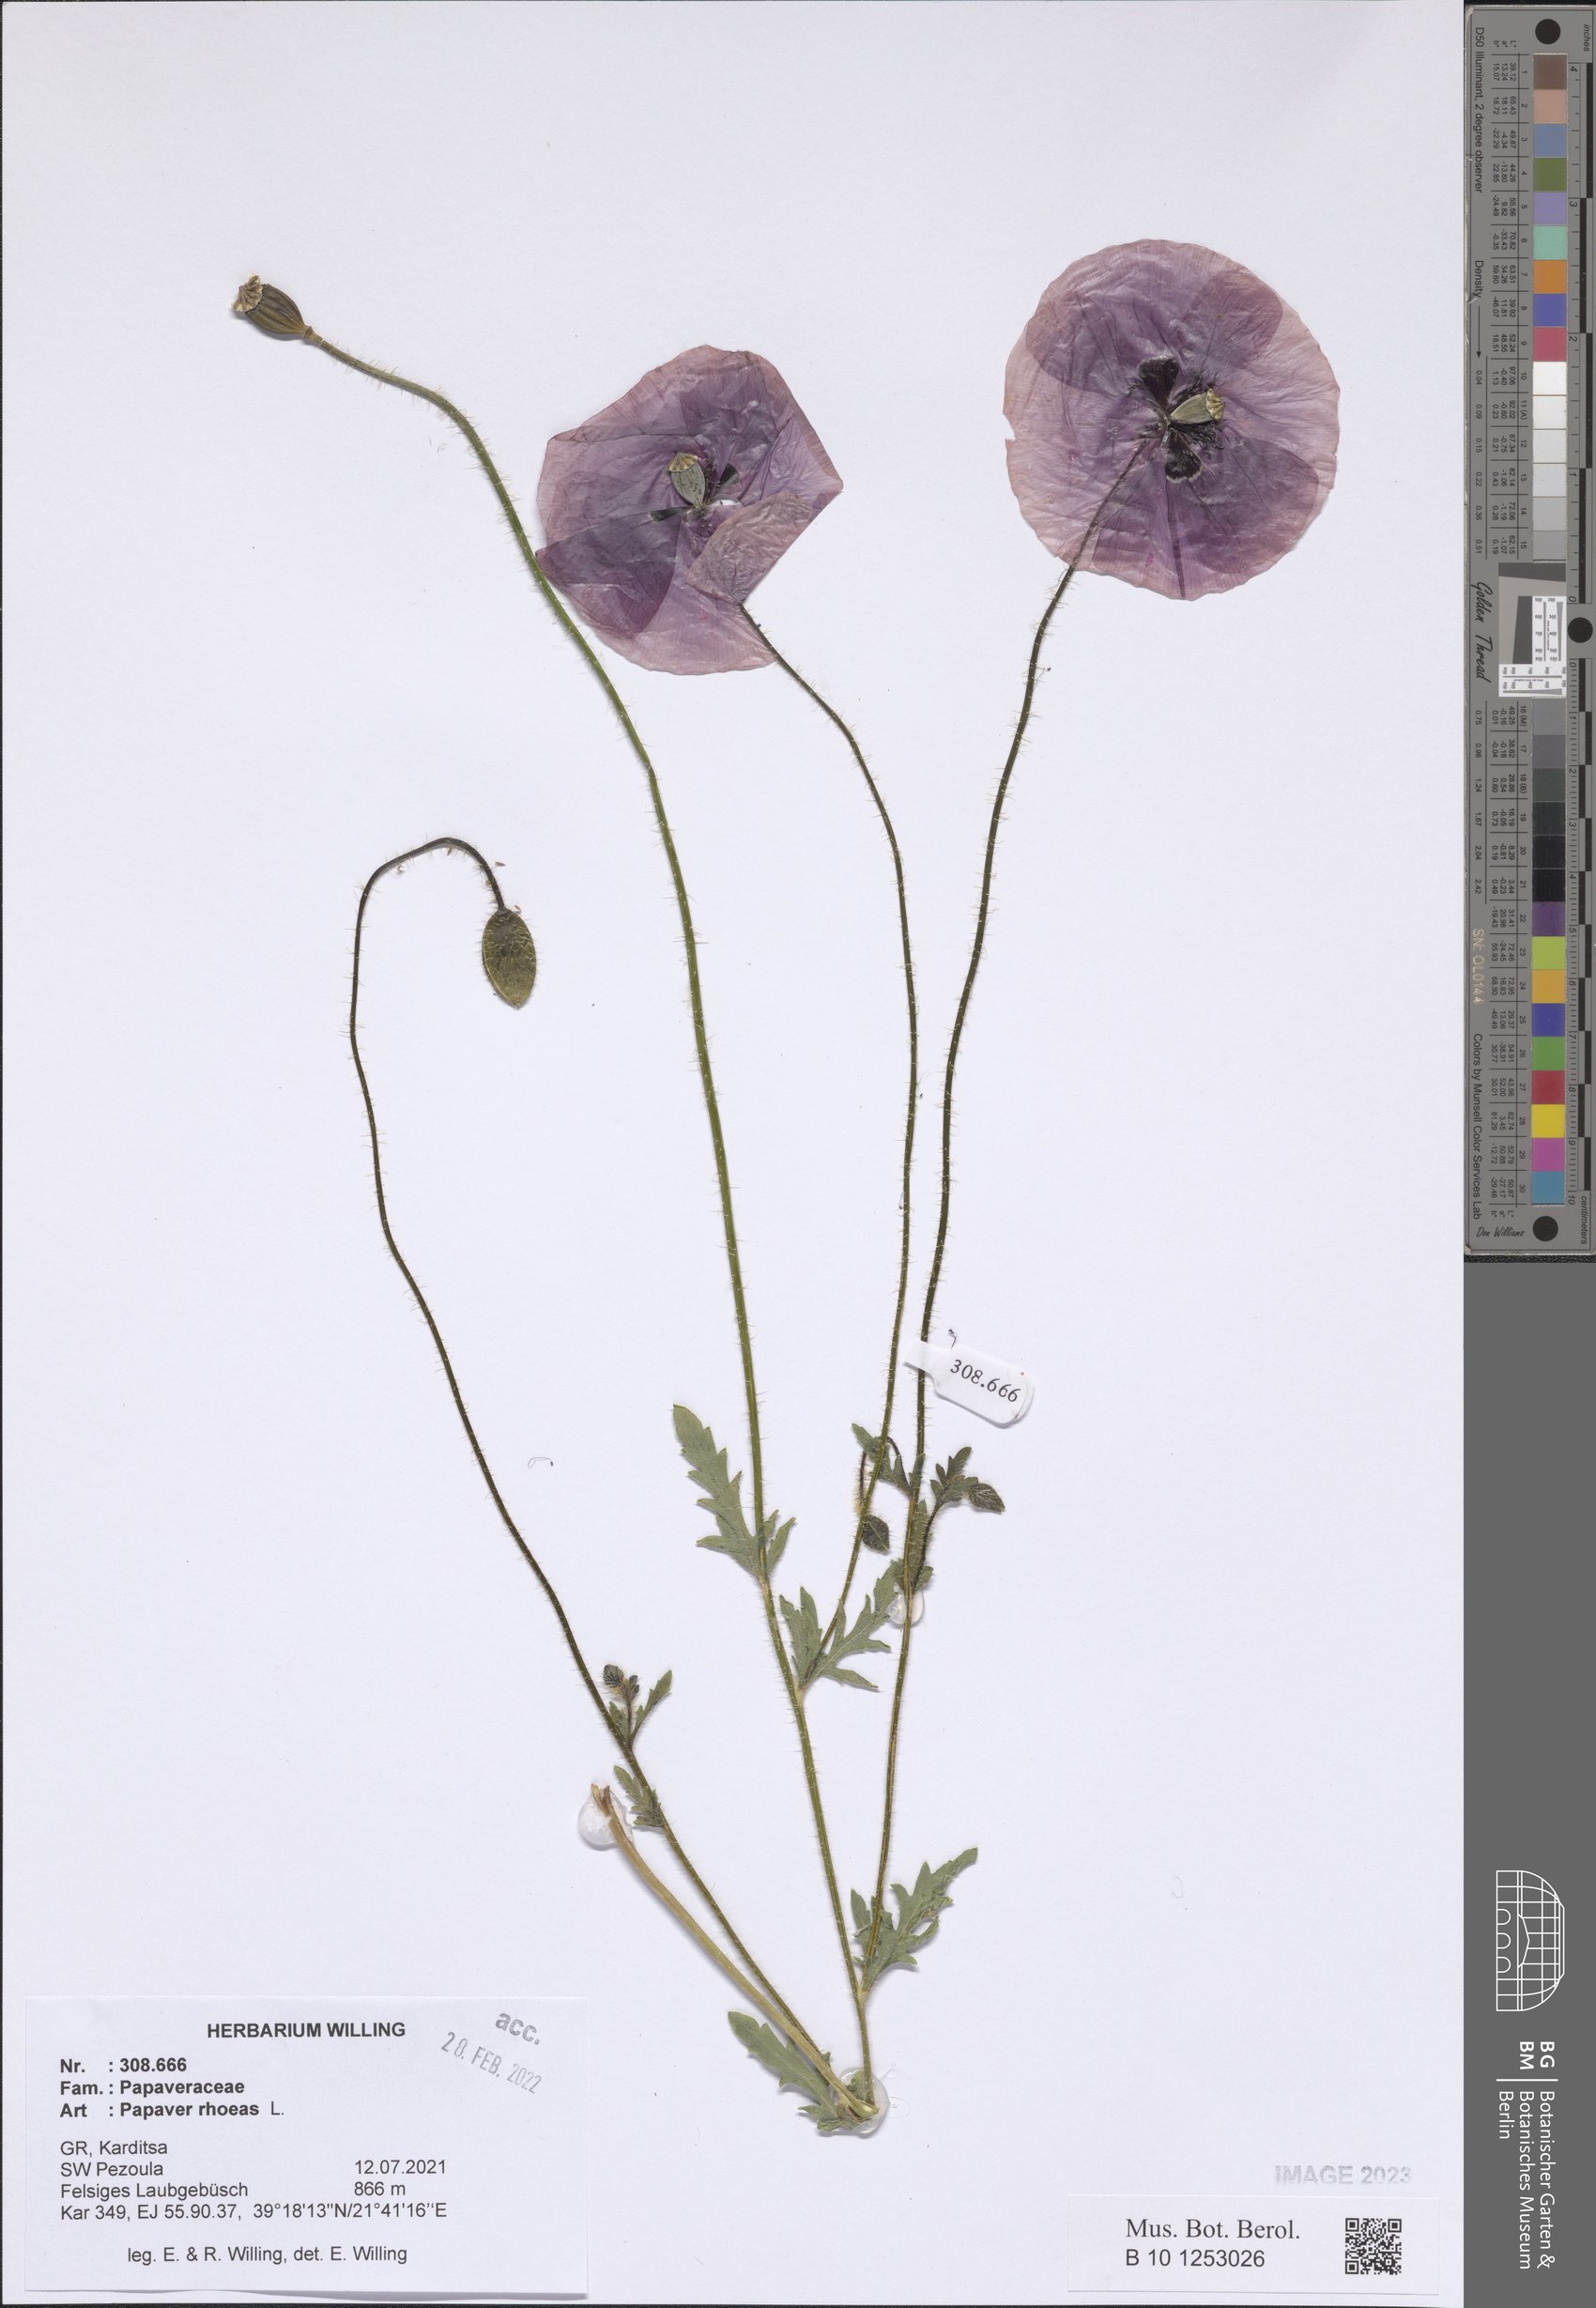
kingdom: Plantae
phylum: Tracheophyta
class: Magnoliopsida
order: Ranunculales
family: Papaveraceae
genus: Papaver
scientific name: Papaver rhoeas
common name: Corn poppy
